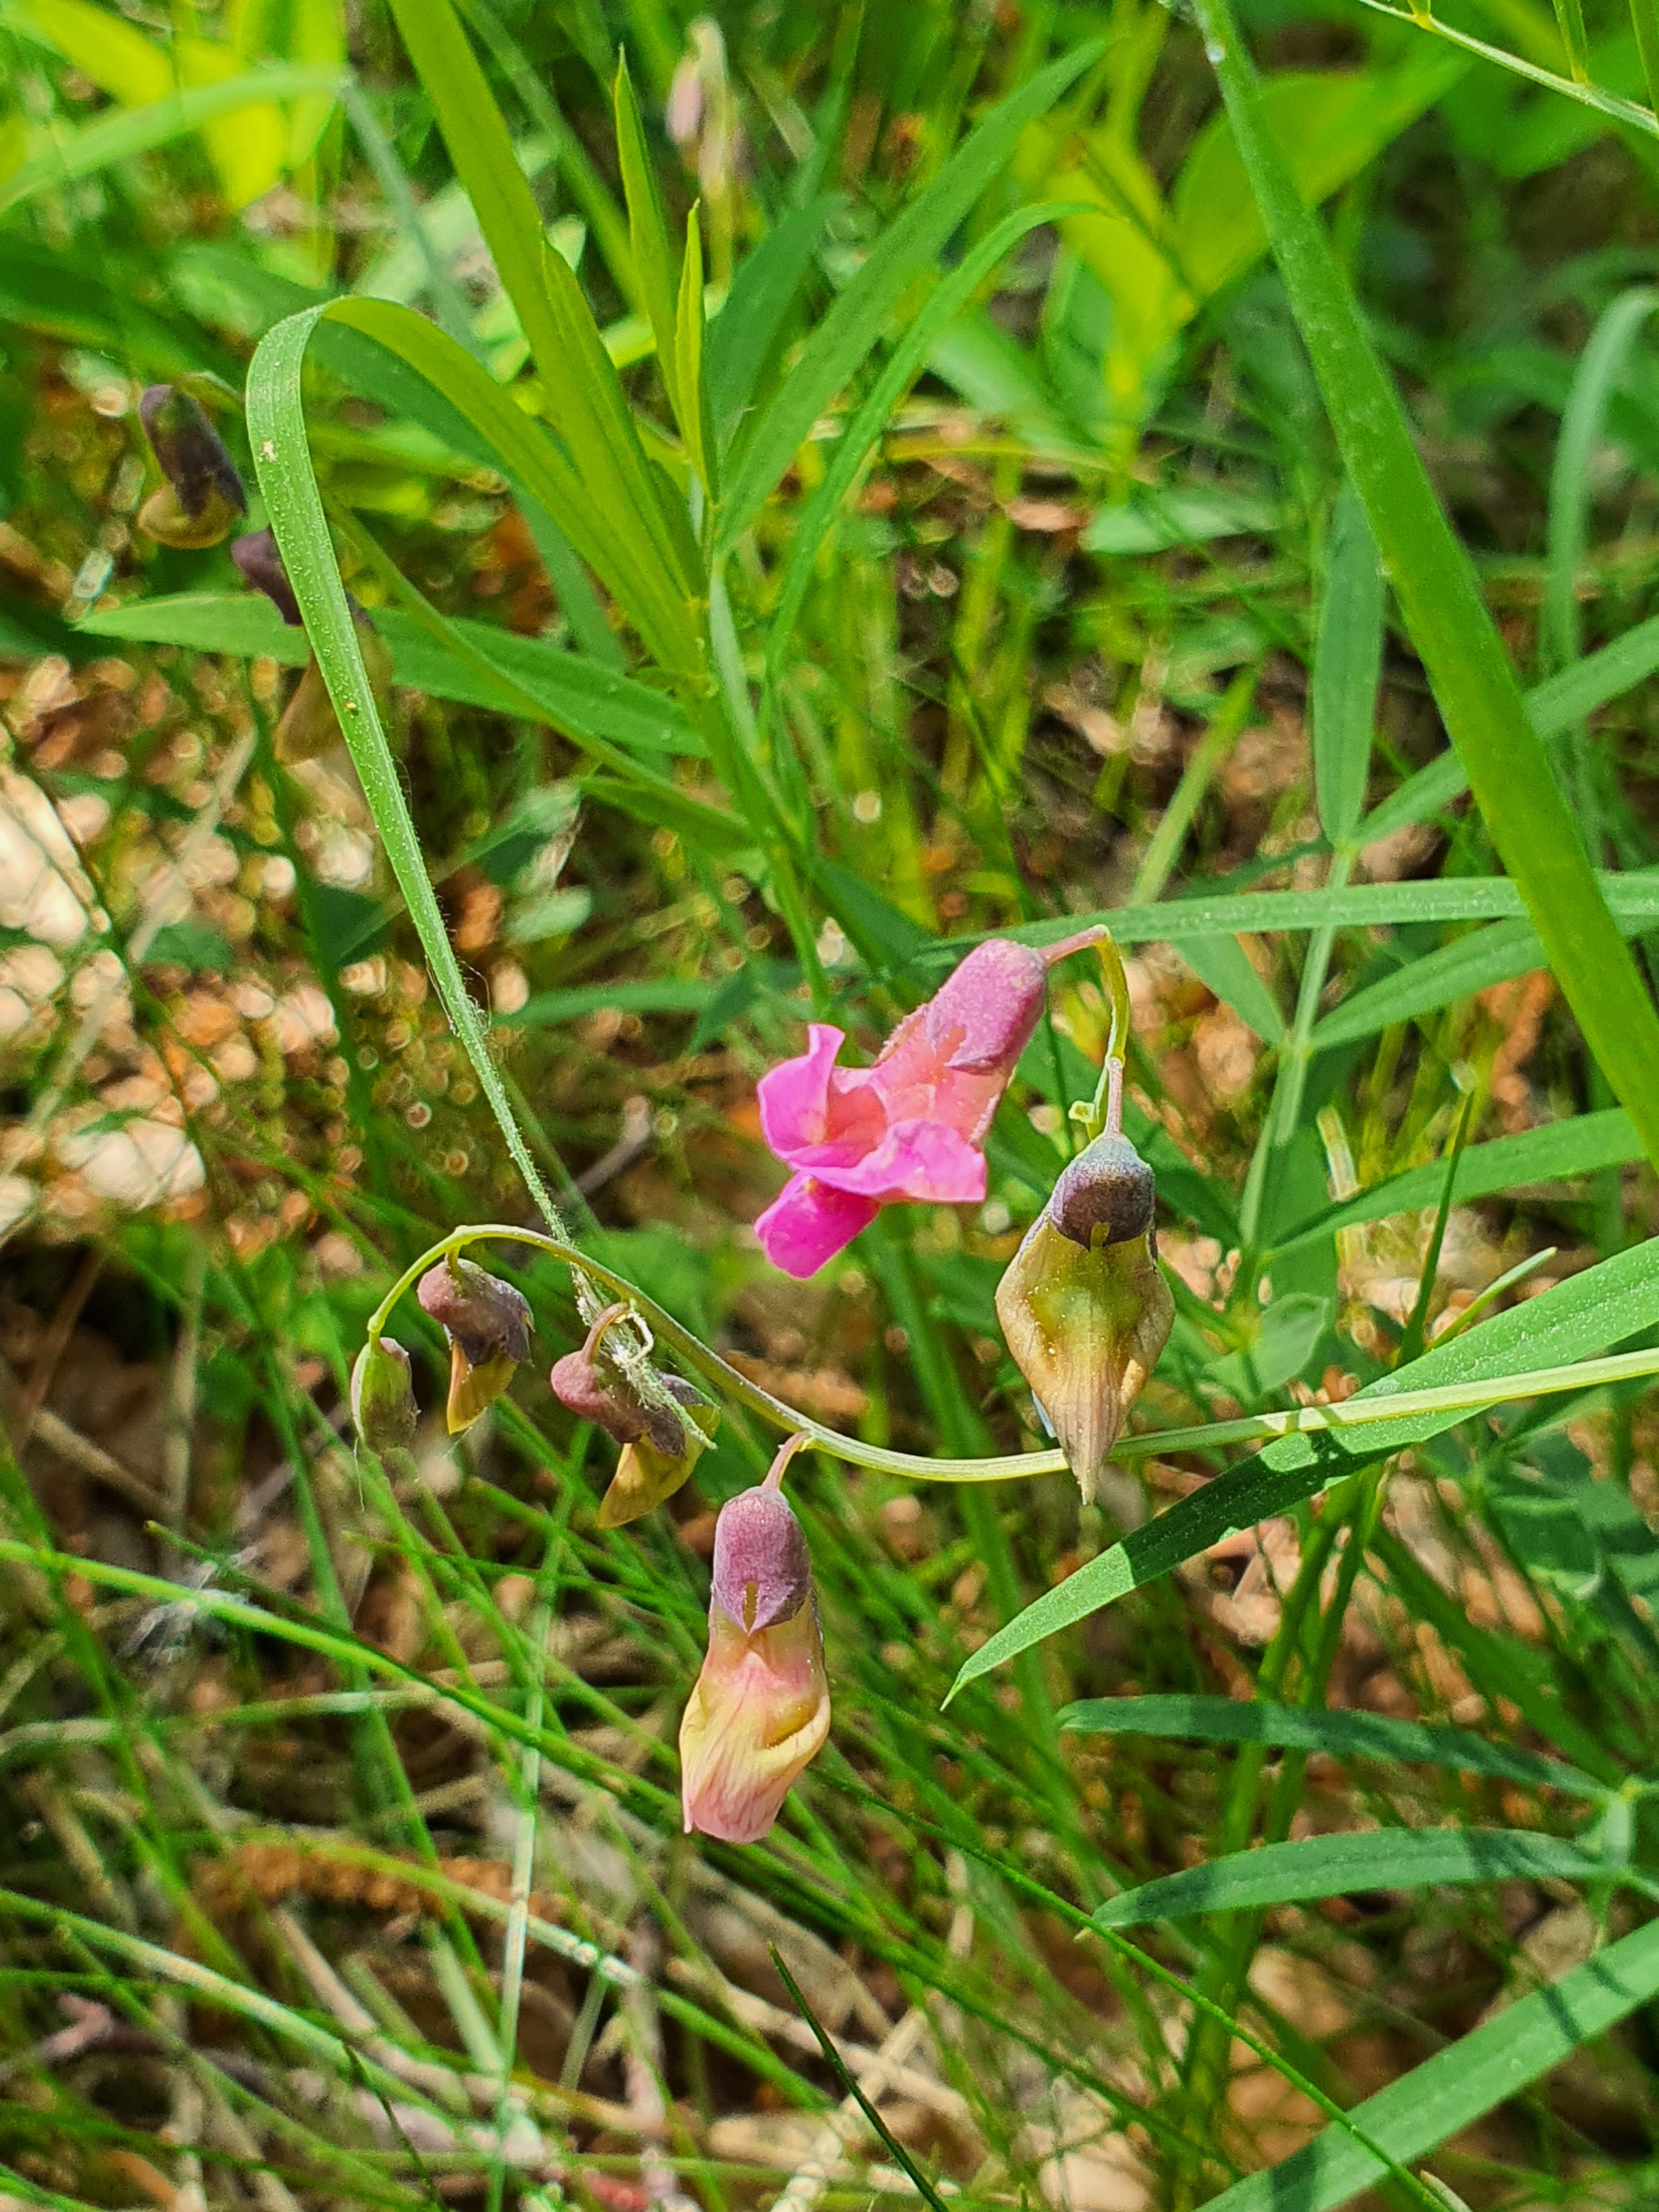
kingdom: Plantae
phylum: Tracheophyta
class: Magnoliopsida
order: Fabales
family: Fabaceae
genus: Lathyrus
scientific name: Lathyrus linifolius
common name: Krat-fladbælg
